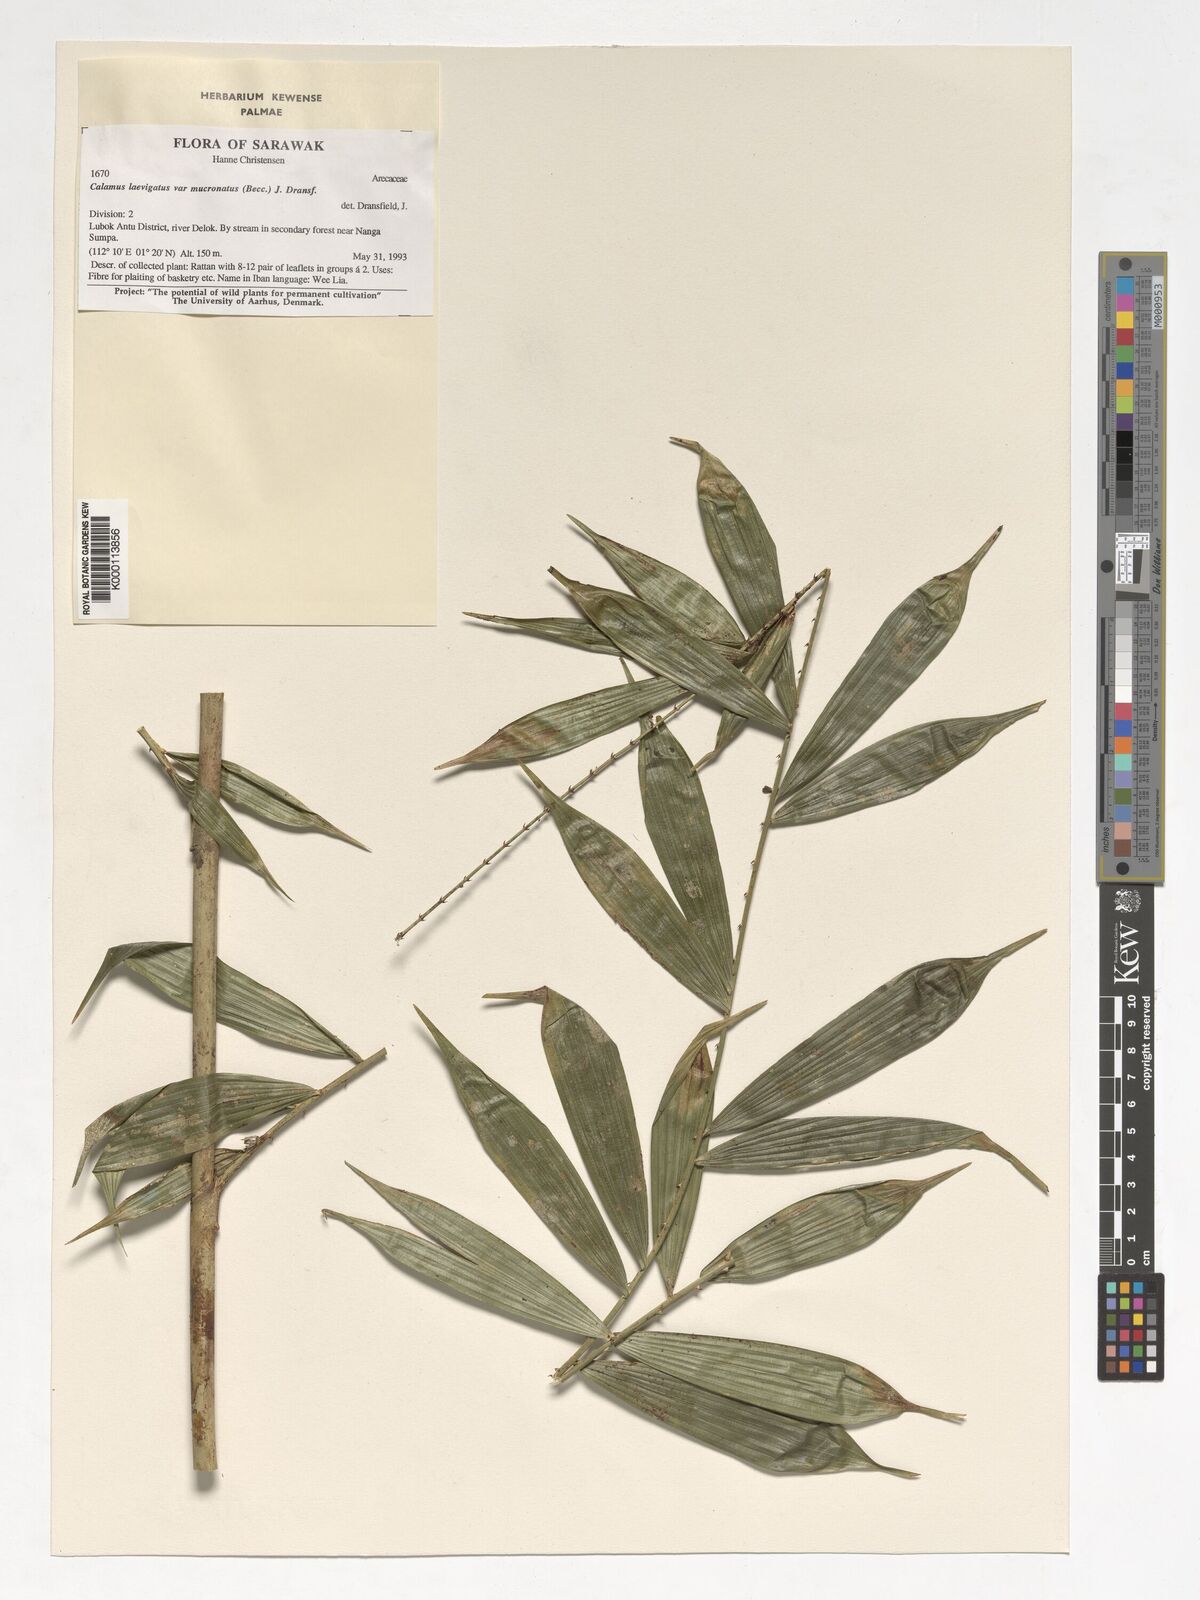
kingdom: Plantae
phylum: Tracheophyta
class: Liliopsida
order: Arecales
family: Arecaceae
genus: Calamus
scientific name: Calamus plicatus
